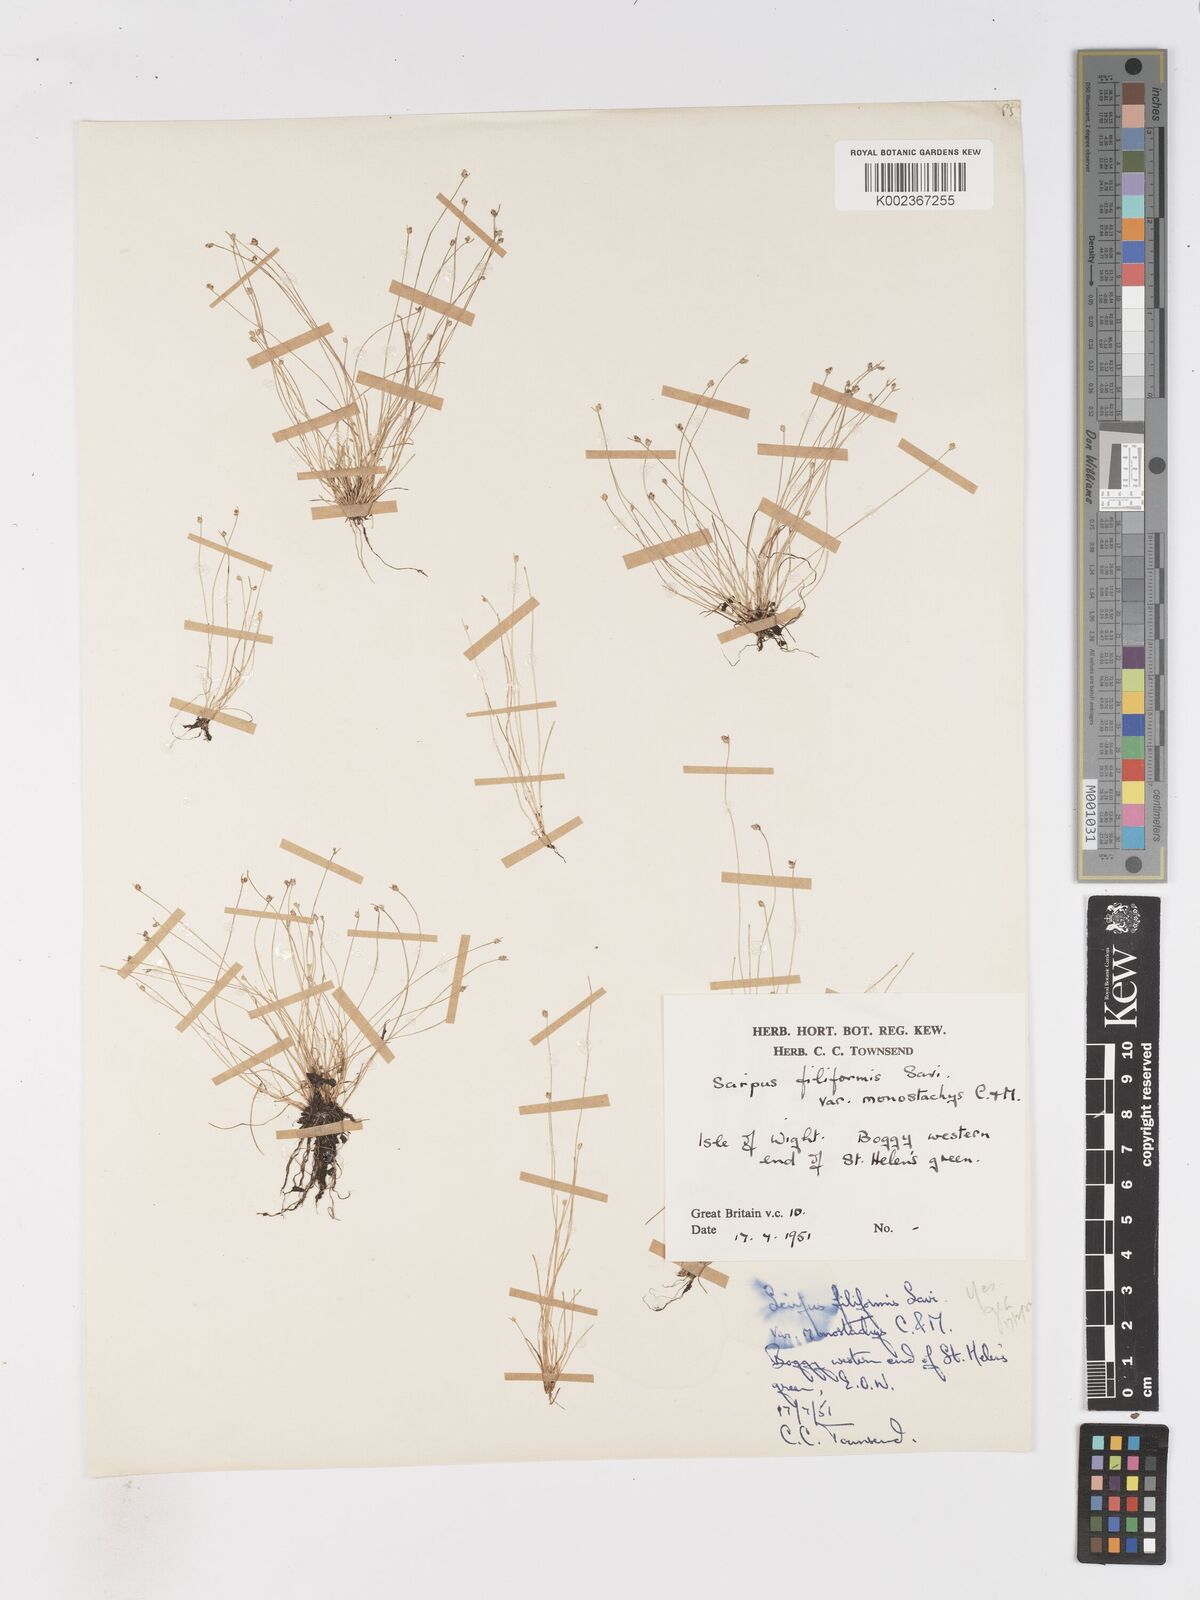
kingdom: Plantae
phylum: Tracheophyta
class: Liliopsida
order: Poales
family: Cyperaceae
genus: Isolepis
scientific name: Isolepis cernua
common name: Slender club-rush
